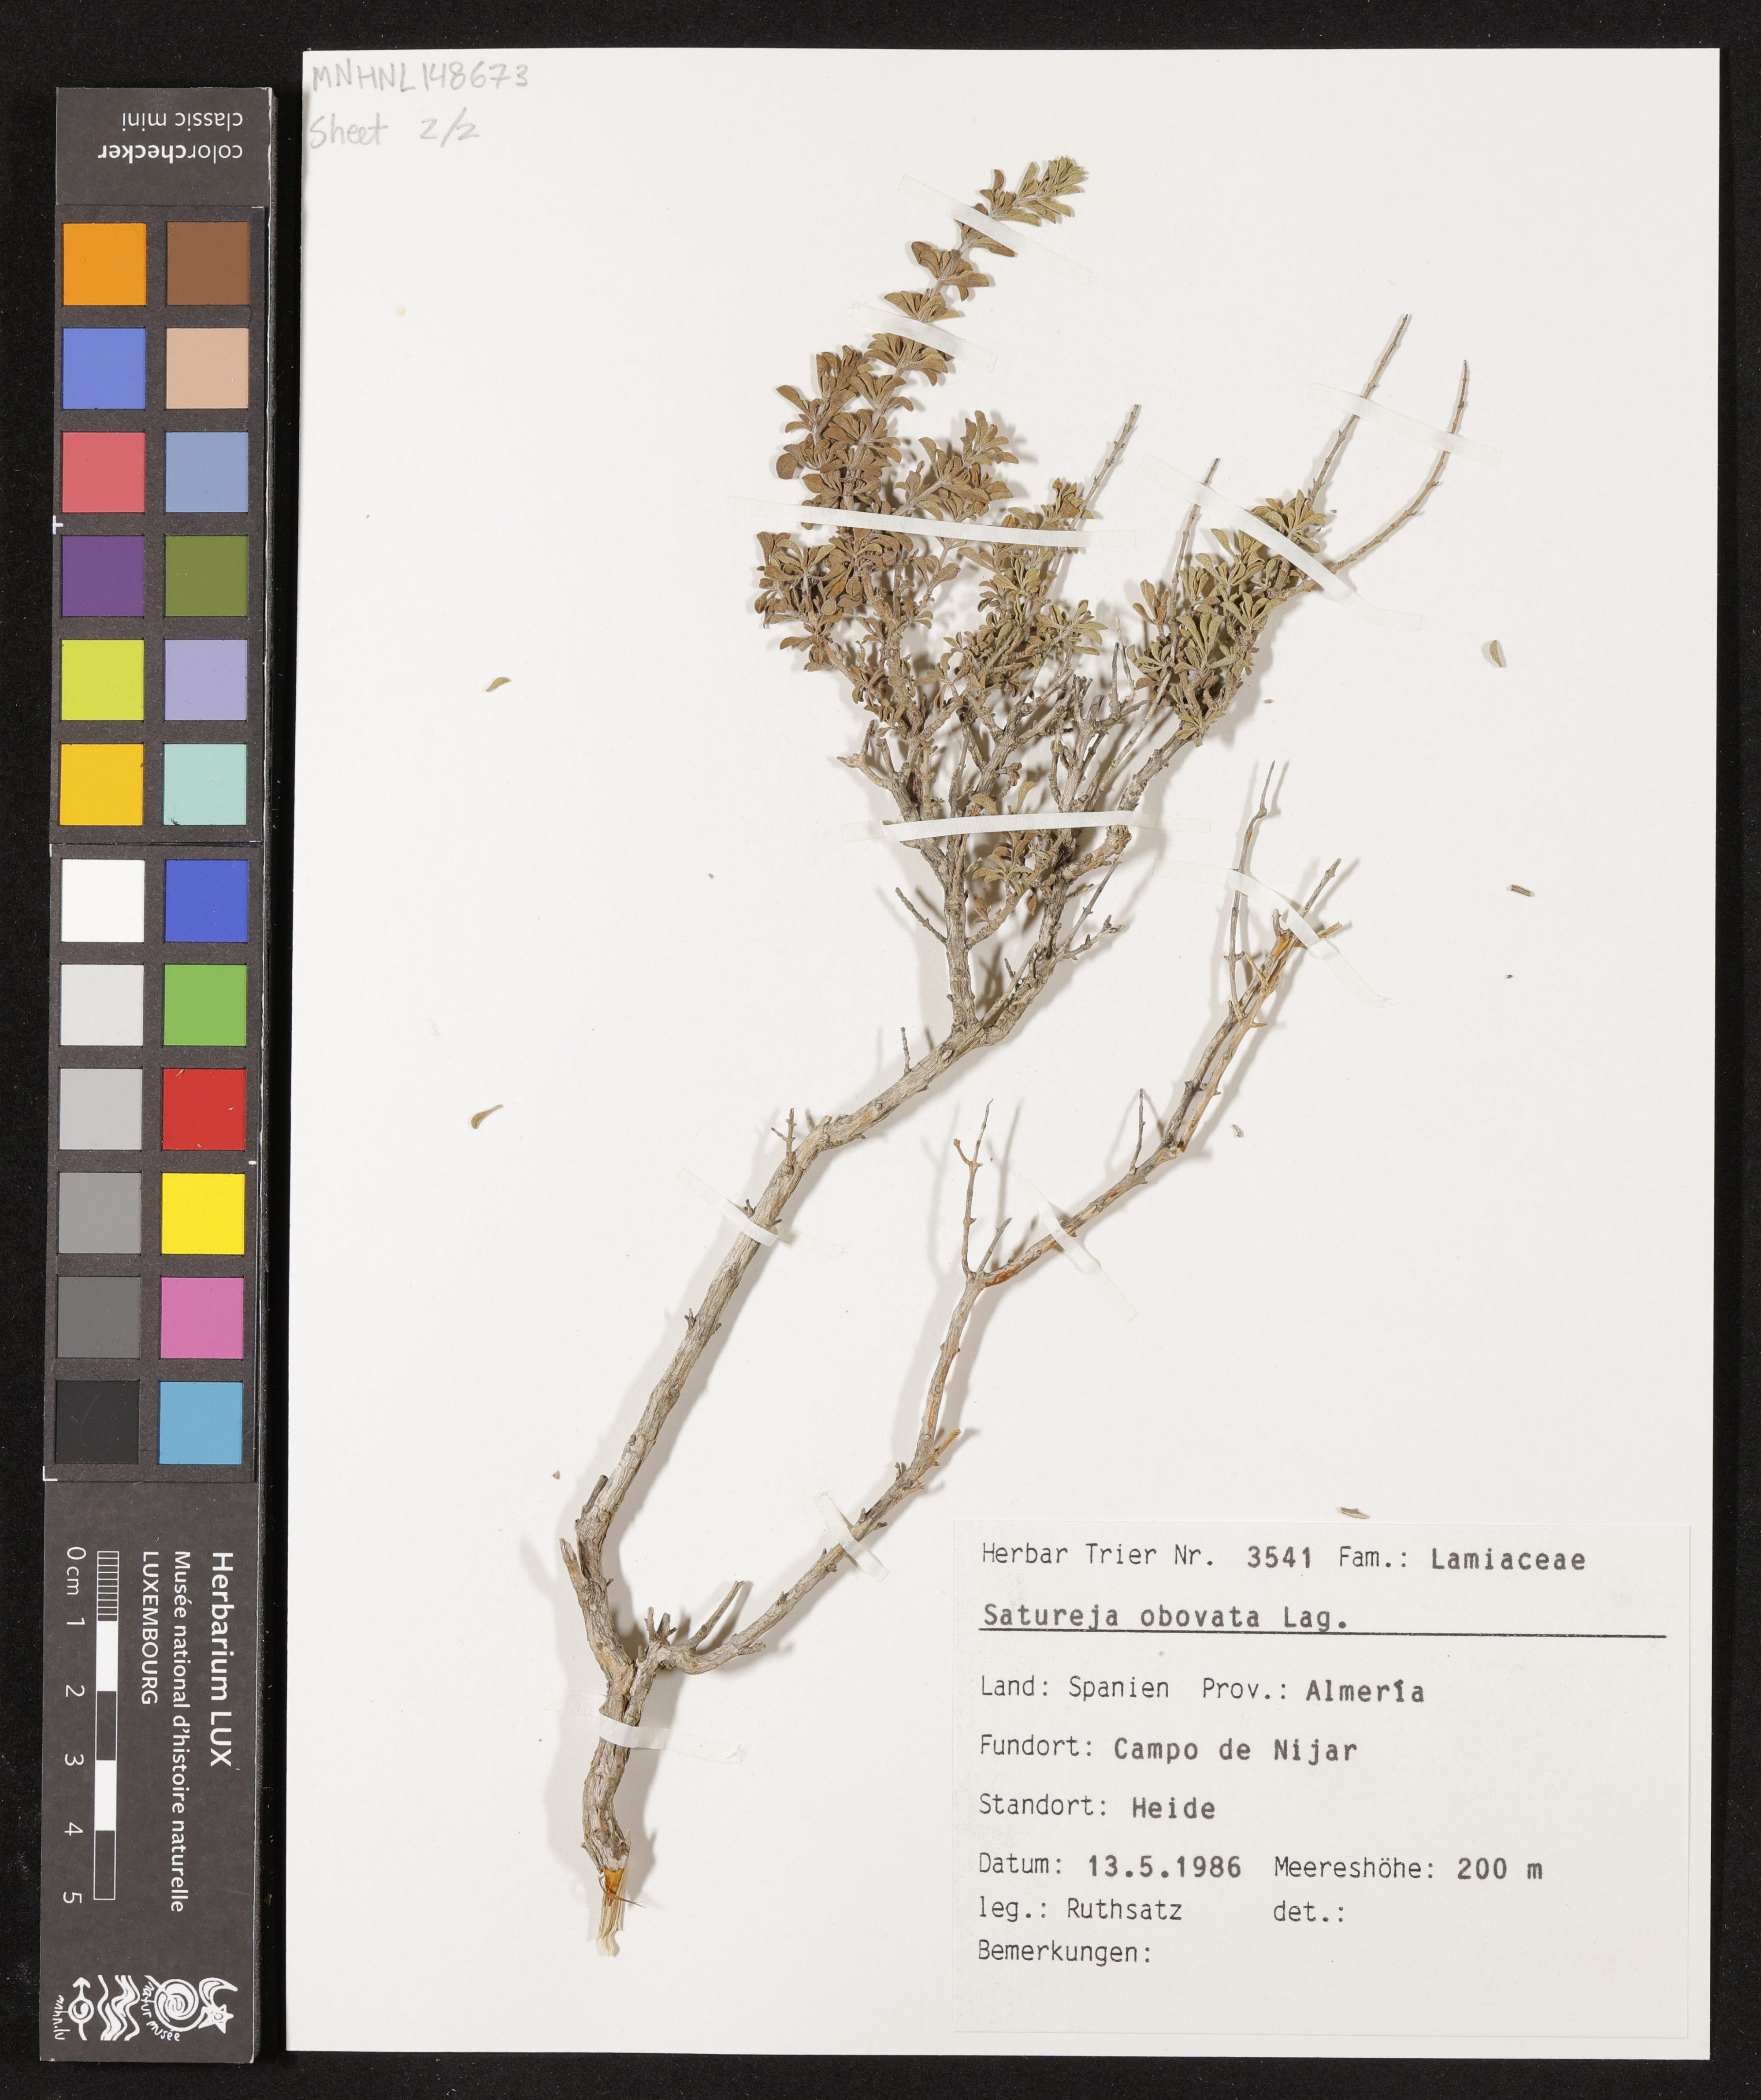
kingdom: Plantae
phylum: Tracheophyta
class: Magnoliopsida
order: Lamiales
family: Lamiaceae
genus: Satureja
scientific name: Satureja cuneifolia
